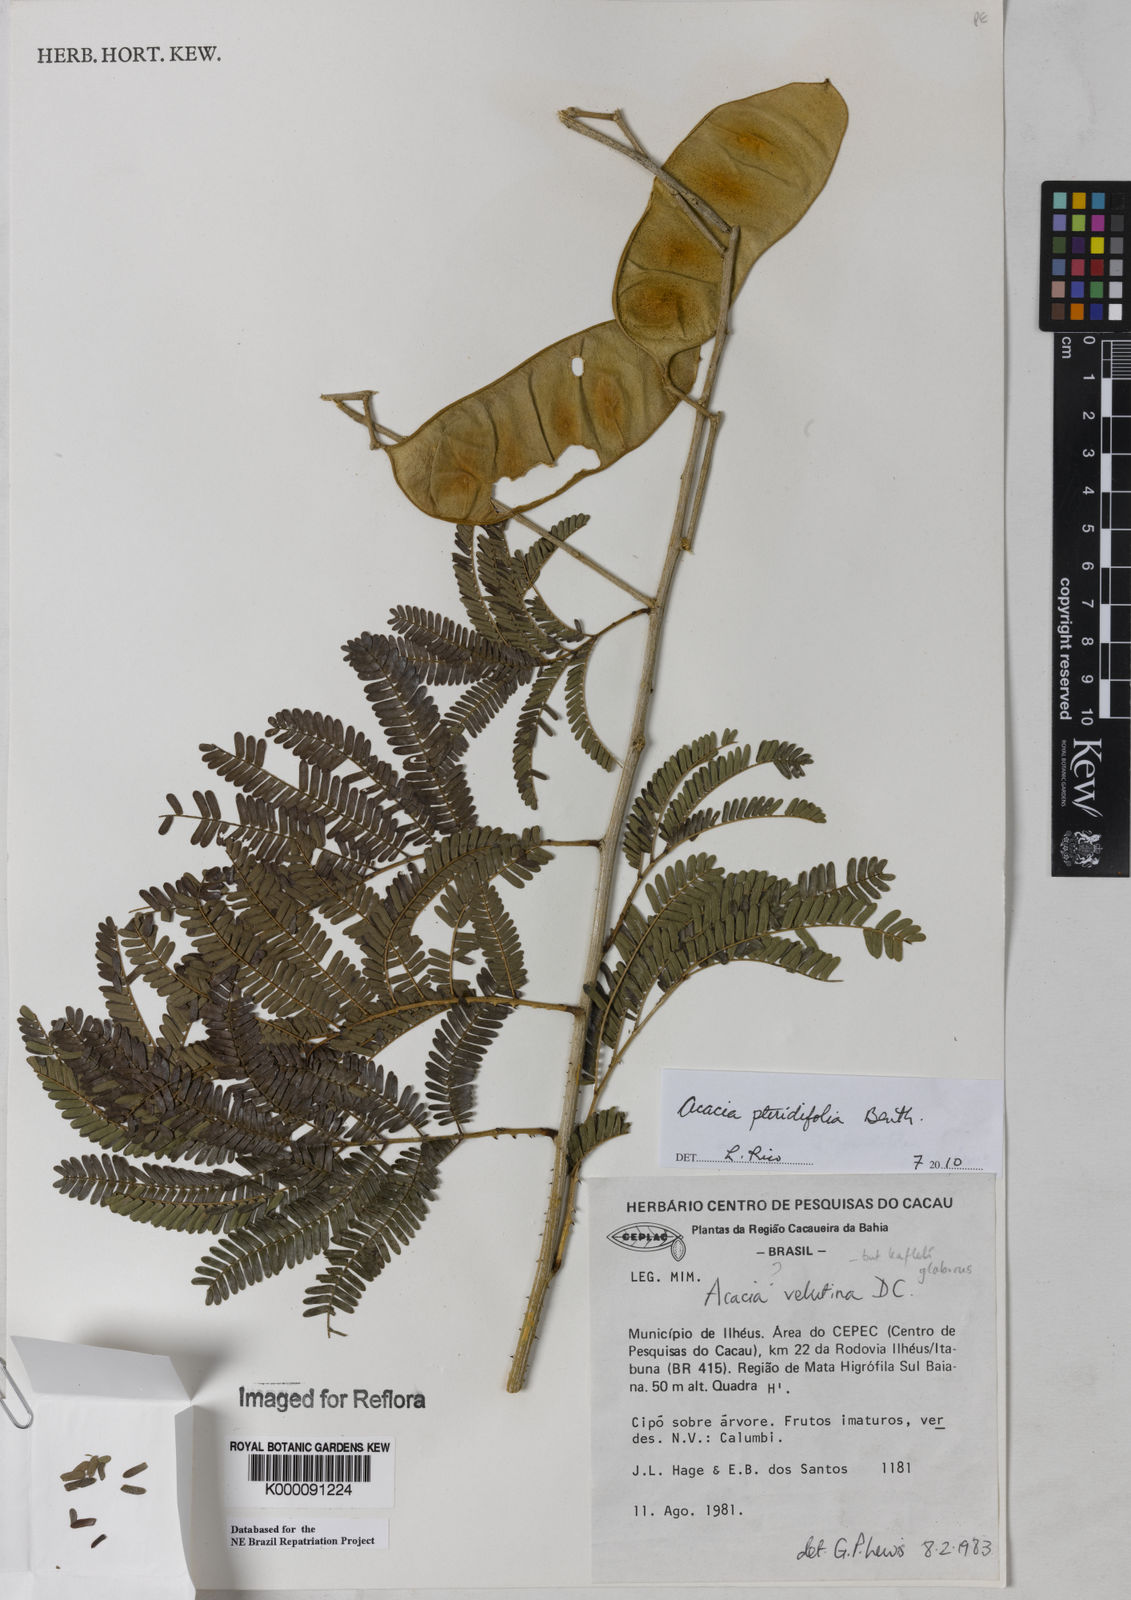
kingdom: Plantae
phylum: Tracheophyta
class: Magnoliopsida
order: Fabales
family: Fabaceae
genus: Senegalia
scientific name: Senegalia pteridifolia
